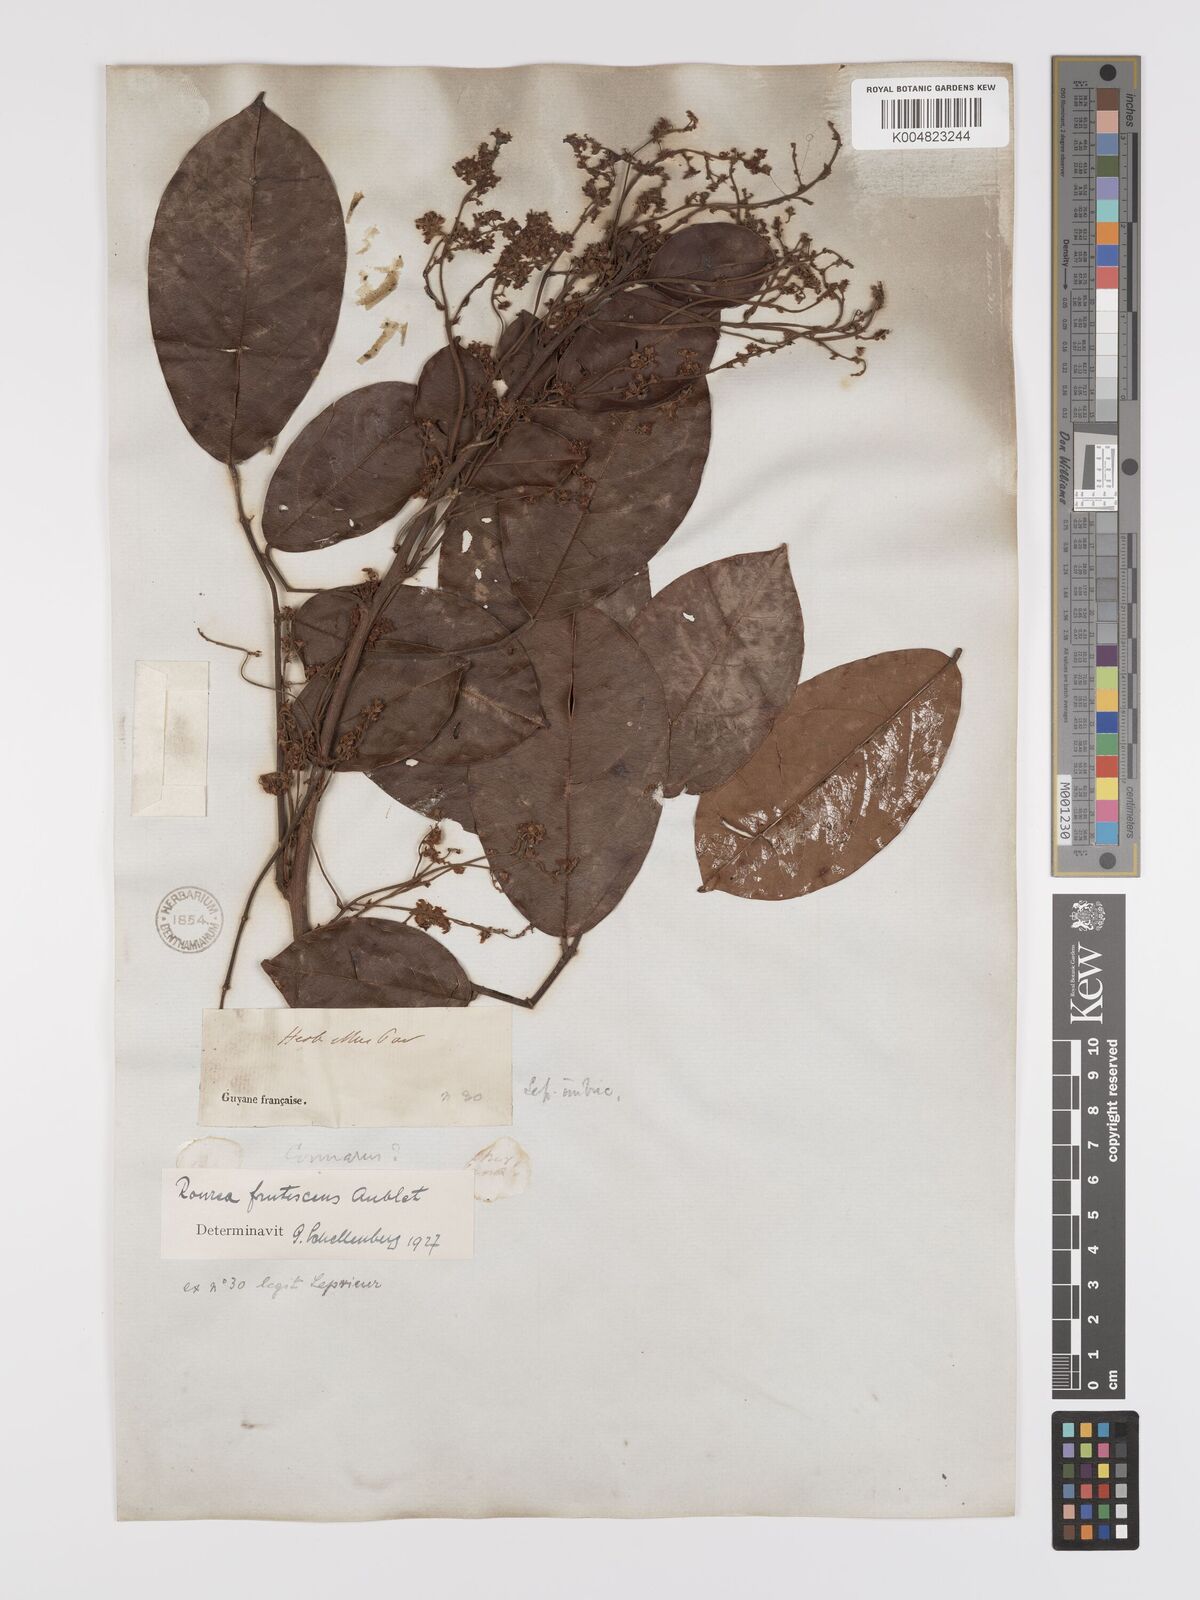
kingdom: Plantae
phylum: Tracheophyta
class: Magnoliopsida
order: Oxalidales
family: Connaraceae
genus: Rourea
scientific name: Rourea frutescens
